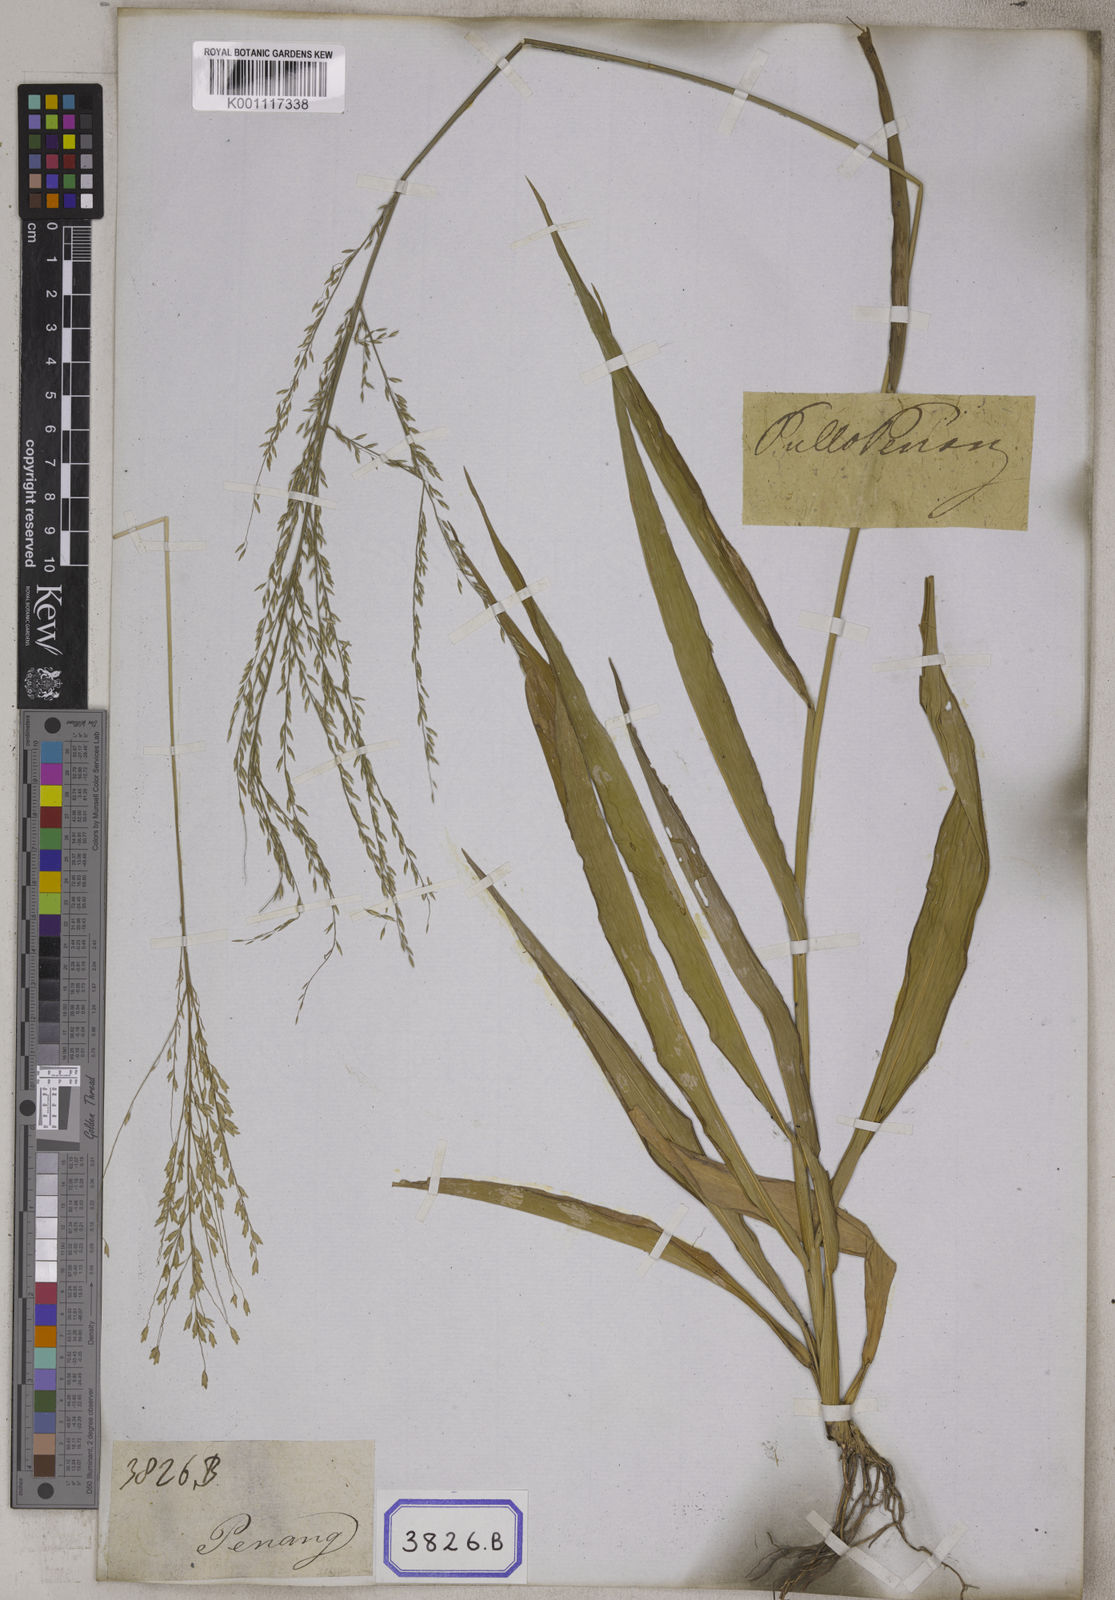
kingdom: Plantae
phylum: Tracheophyta
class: Liliopsida
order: Poales
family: Poaceae
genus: Centotheca
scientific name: Centotheca lappacea
